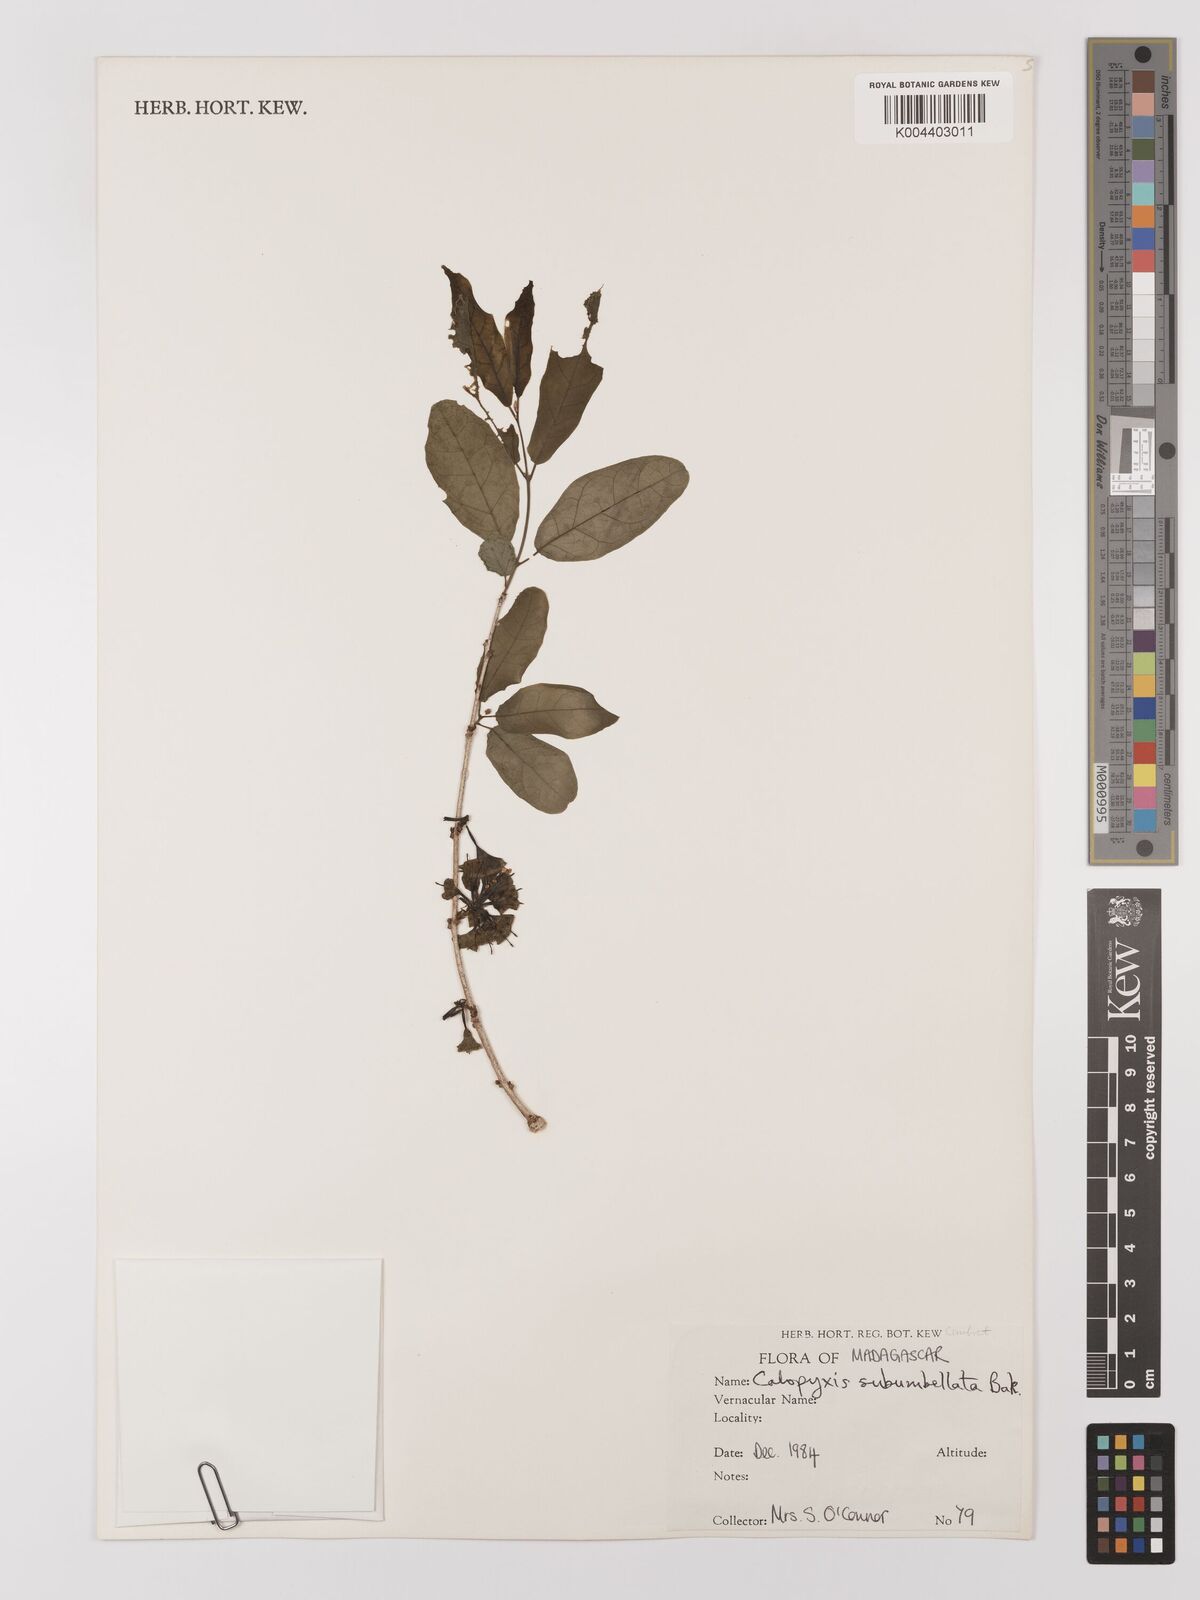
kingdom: Plantae
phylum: Tracheophyta
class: Magnoliopsida
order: Myrtales
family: Combretaceae
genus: Combretum
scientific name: Combretum subumbellatum
